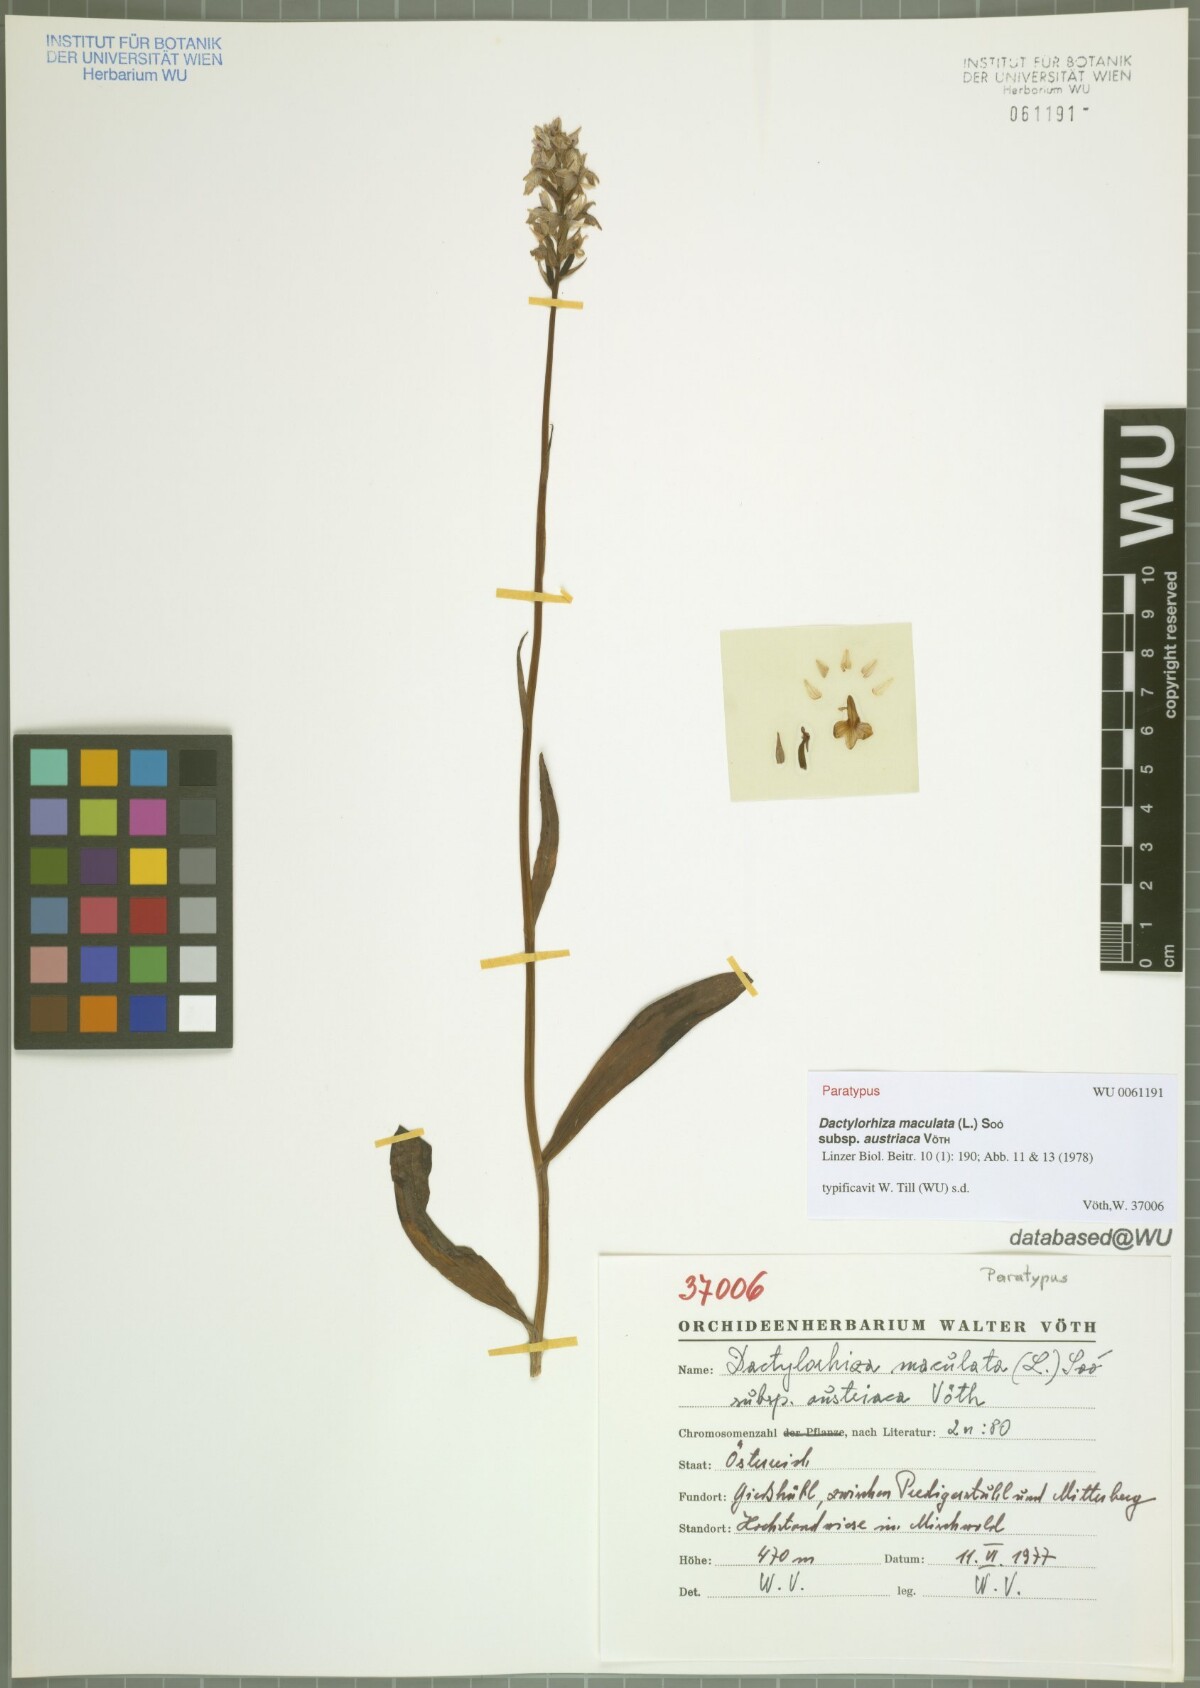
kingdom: Plantae
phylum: Tracheophyta
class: Liliopsida
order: Asparagales
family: Orchidaceae
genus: Dactylorhiza
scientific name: Dactylorhiza maculata
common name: Heath spotted-orchid
